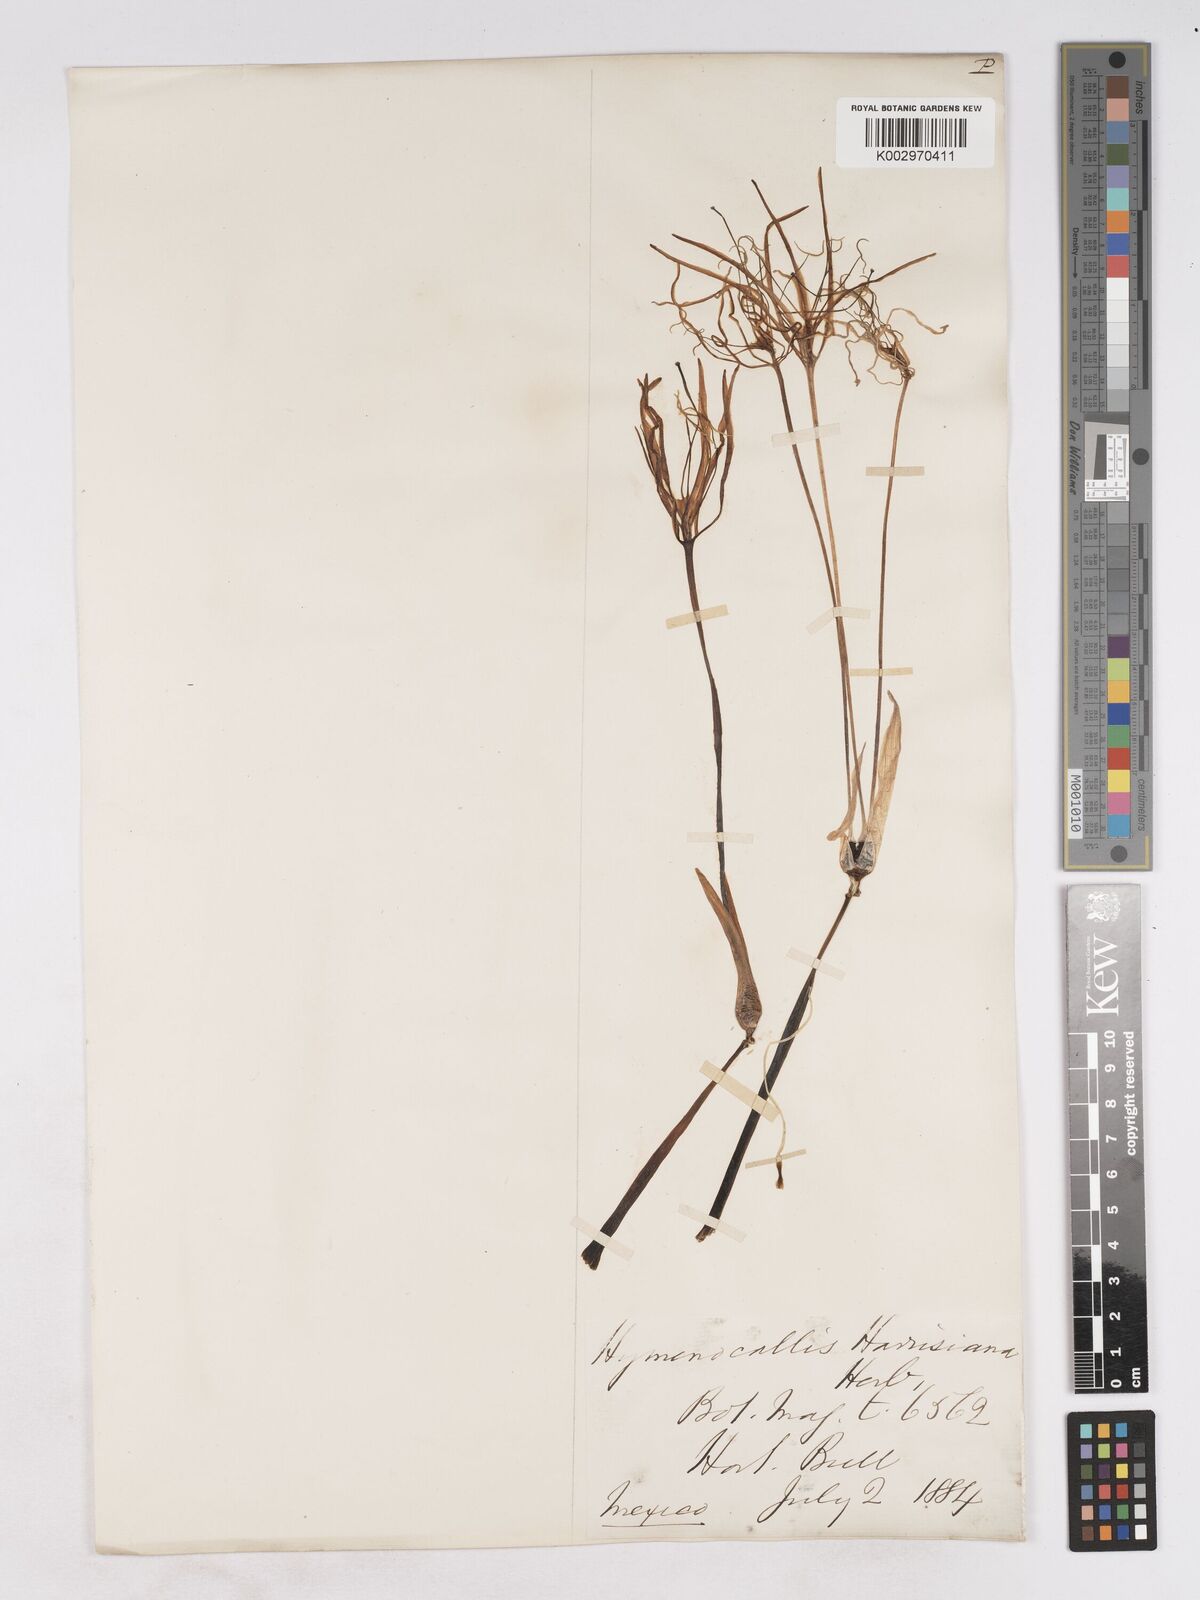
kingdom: Plantae
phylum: Tracheophyta
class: Liliopsida
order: Asparagales
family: Amaryllidaceae
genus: Hymenocallis
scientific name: Hymenocallis harrisiana
